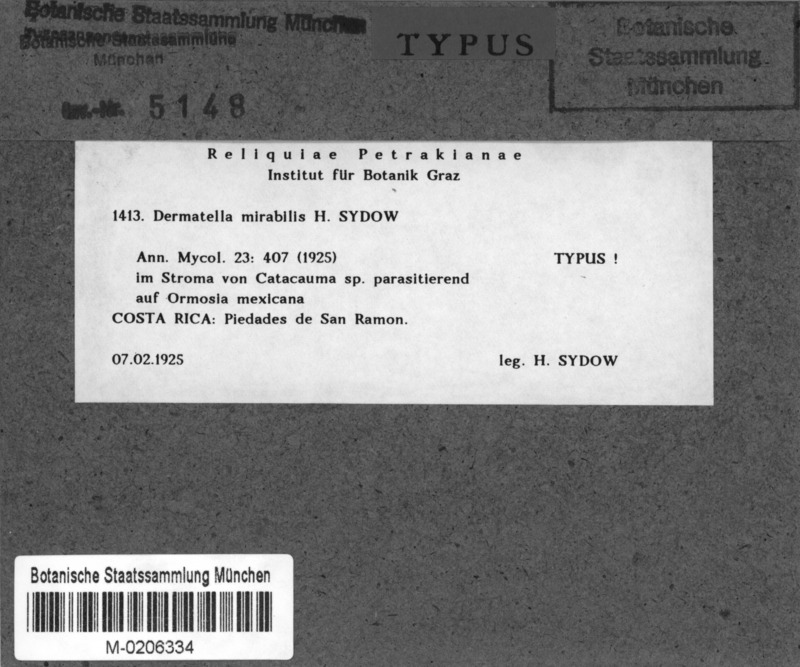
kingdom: Fungi
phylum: Ascomycota
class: Leotiomycetes
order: Helotiales
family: Dermateaceae
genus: Dermatella
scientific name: Dermatella mirabilis
